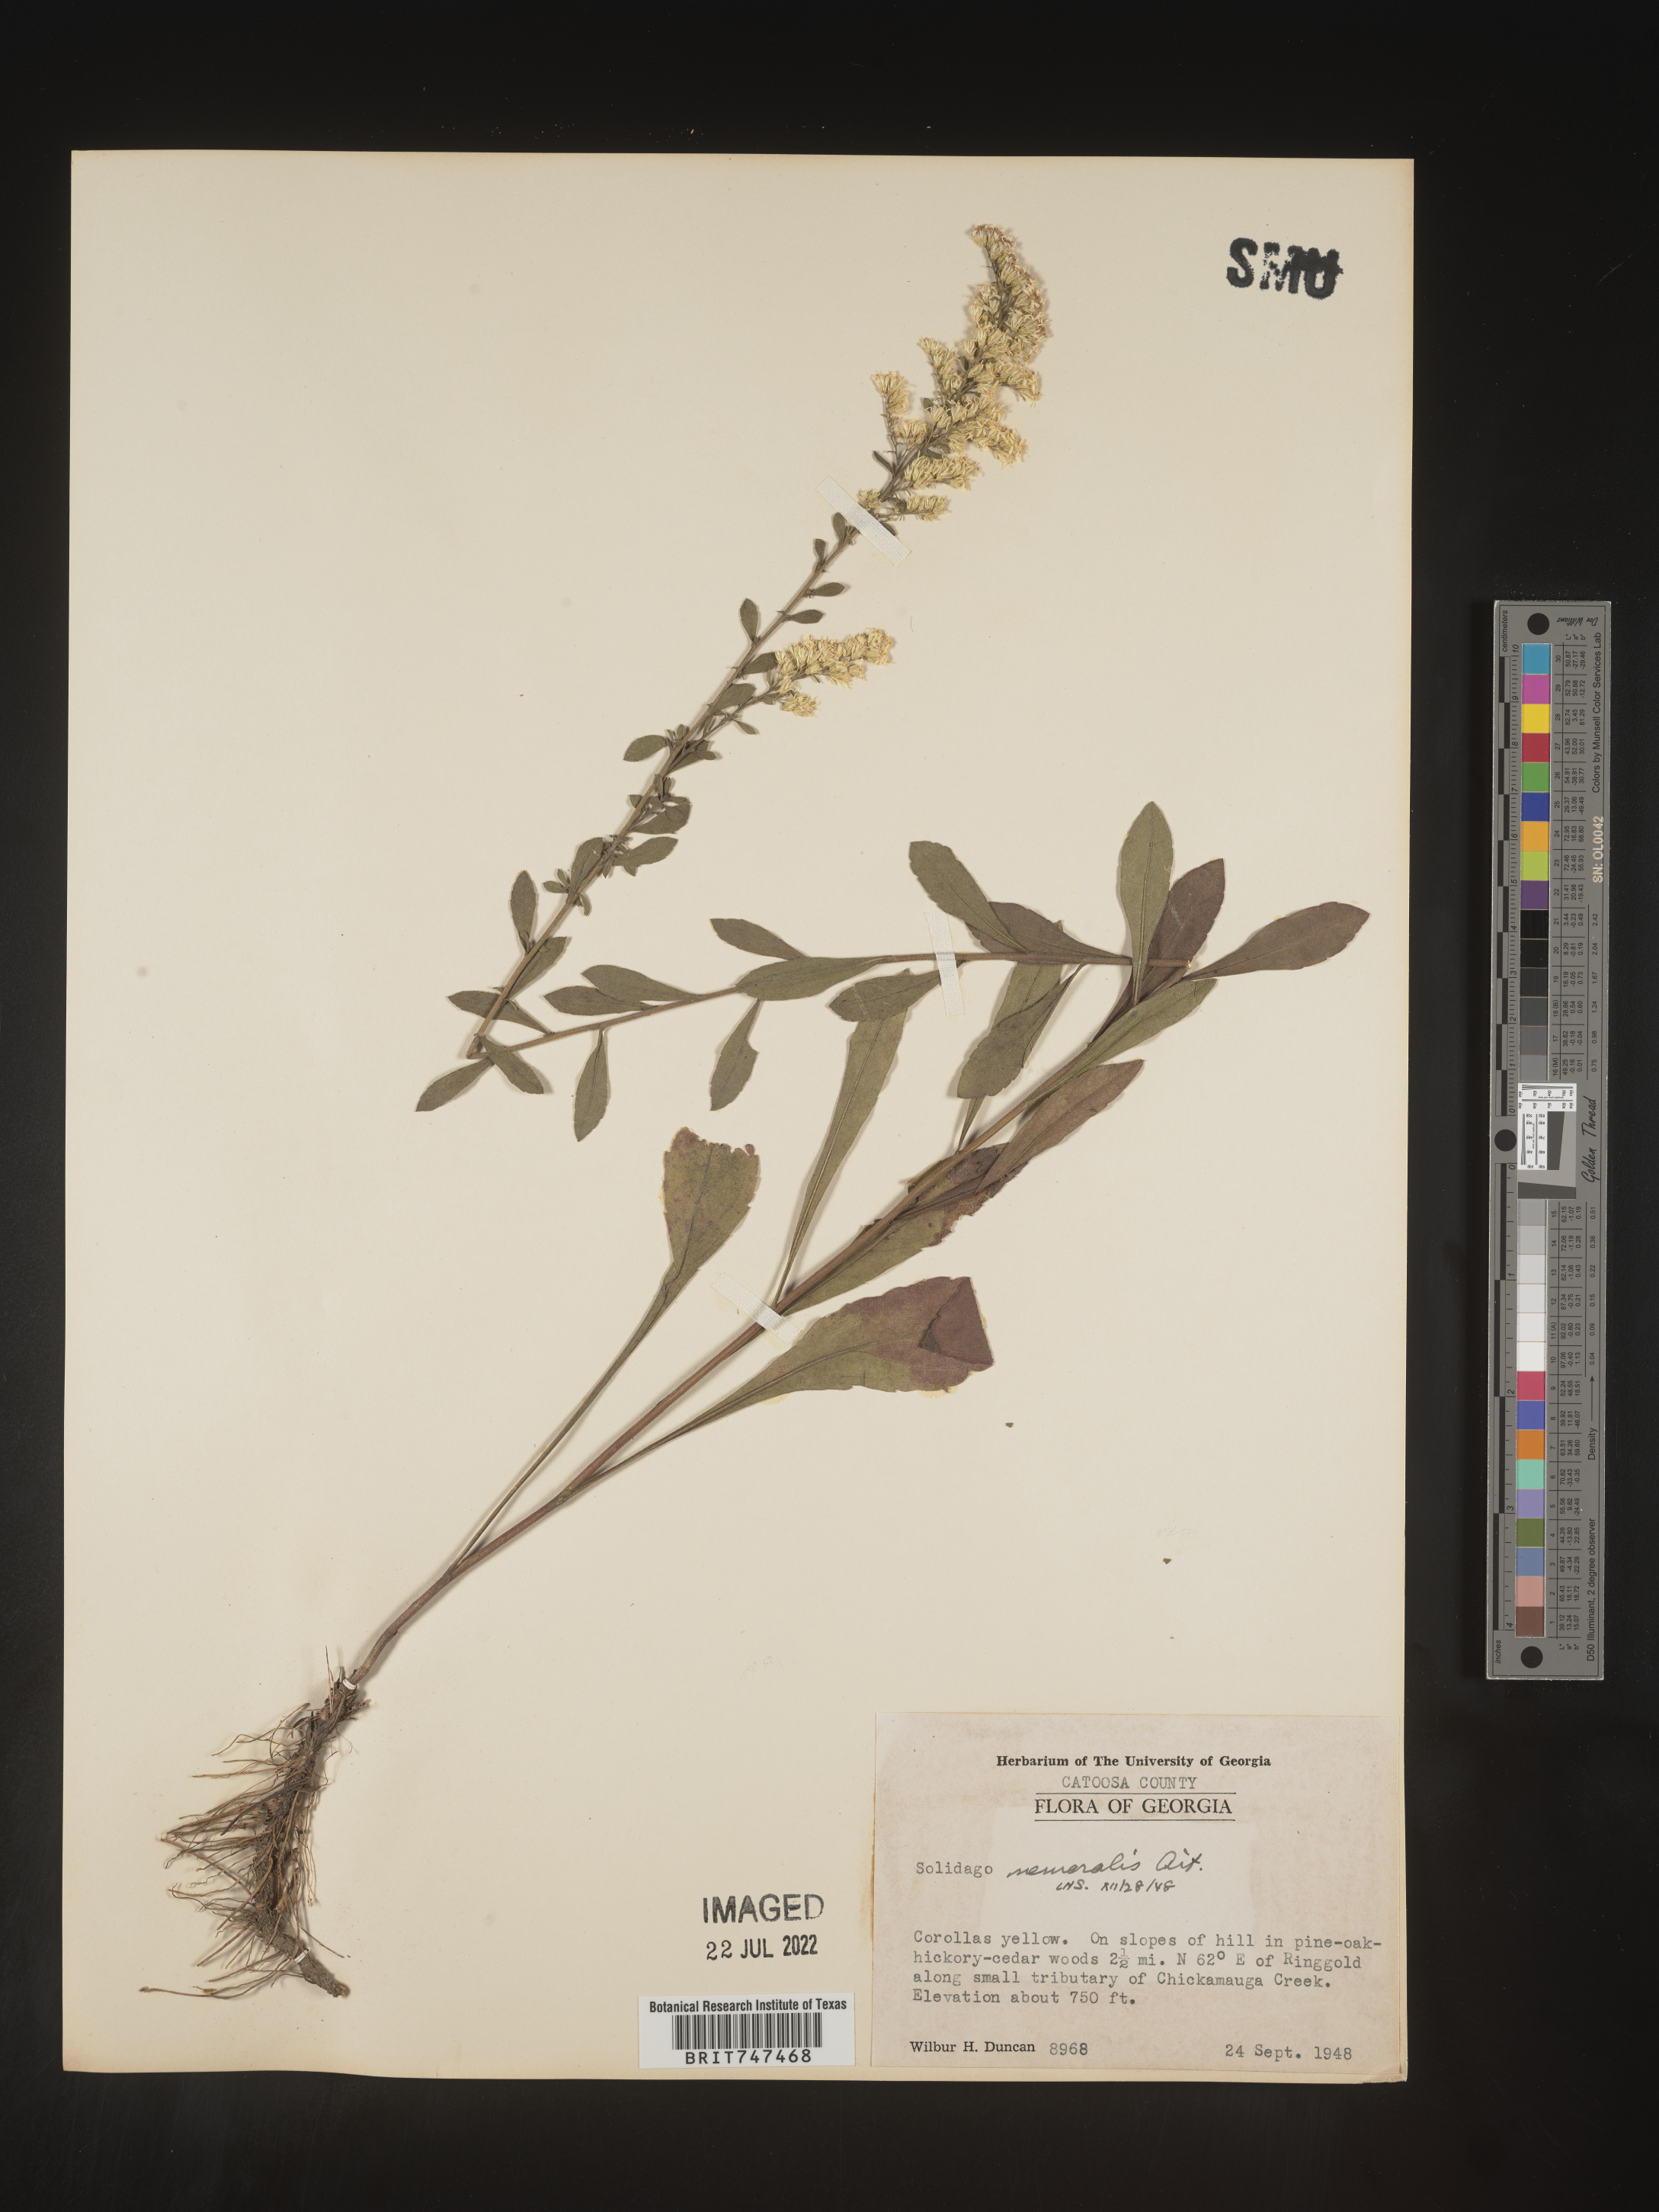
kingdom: Plantae
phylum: Tracheophyta
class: Magnoliopsida
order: Asterales
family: Asteraceae
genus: Solidago
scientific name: Solidago nemoralis
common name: Grey goldenrod
